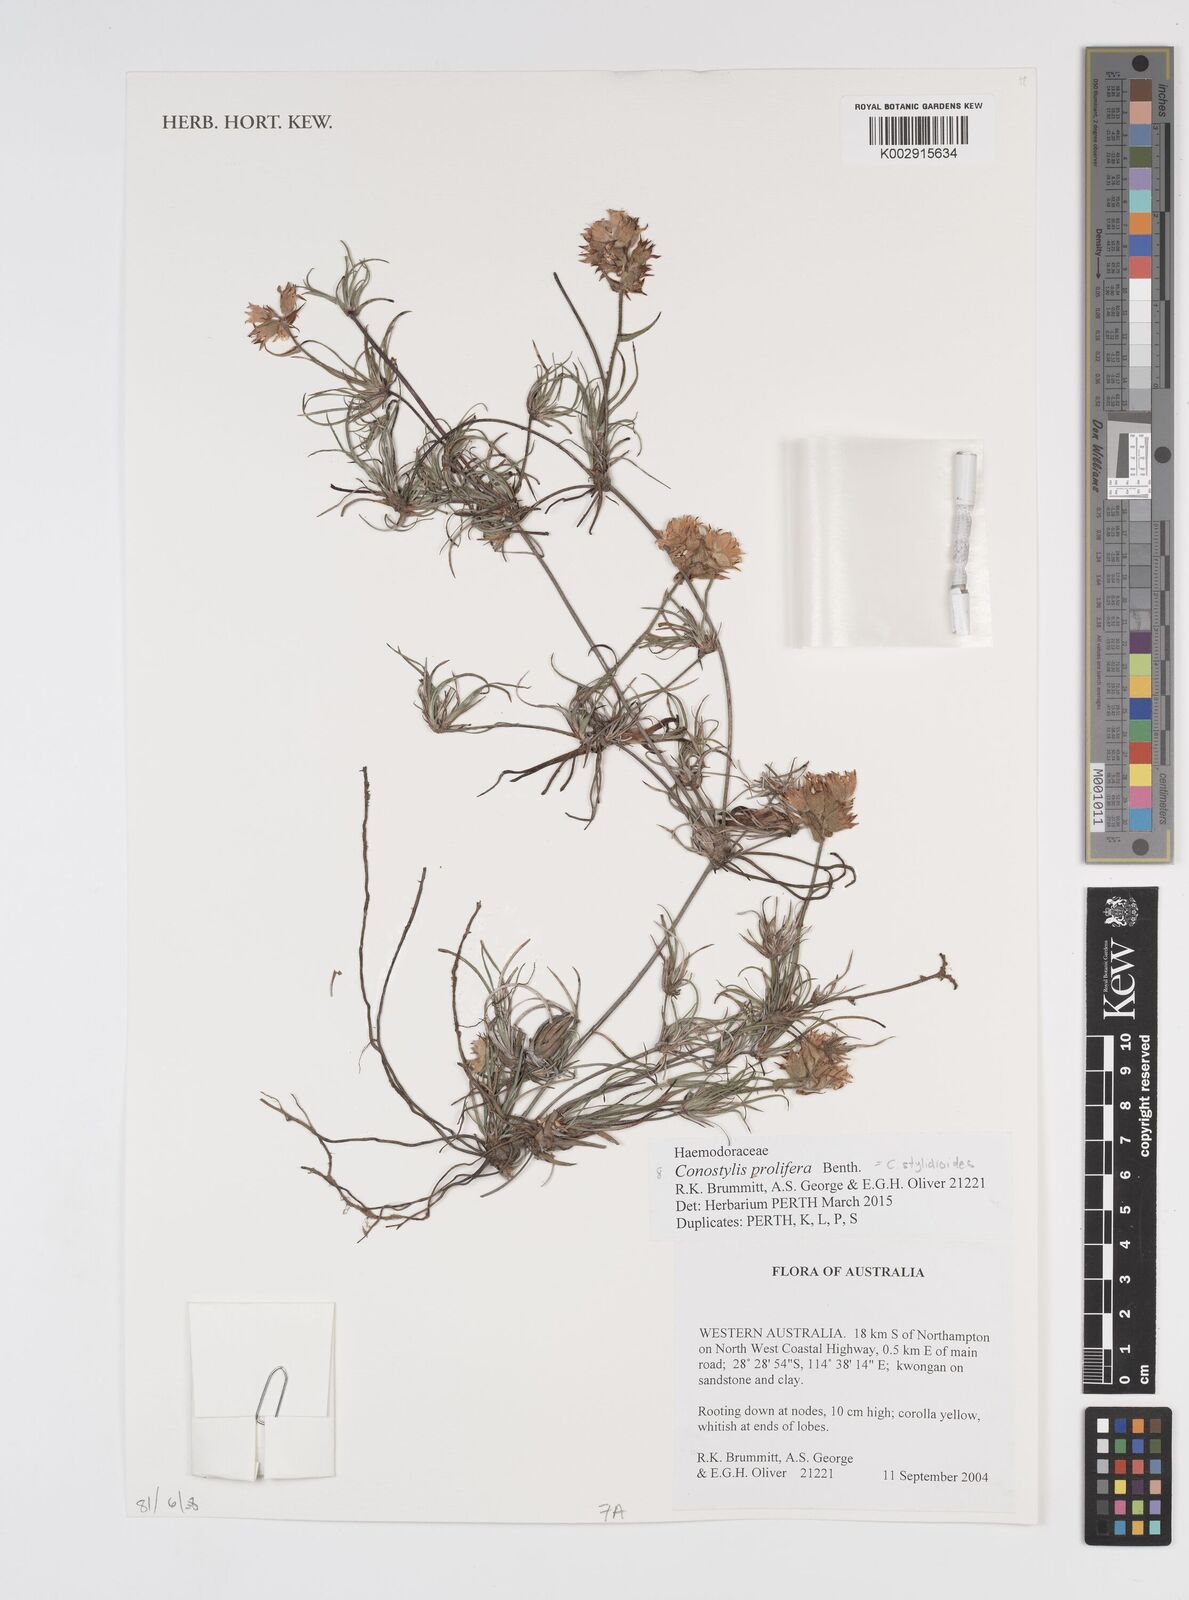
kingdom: Plantae
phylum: Tracheophyta
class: Liliopsida
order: Commelinales
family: Haemodoraceae
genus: Conostylis
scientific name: Conostylis stylidioides
